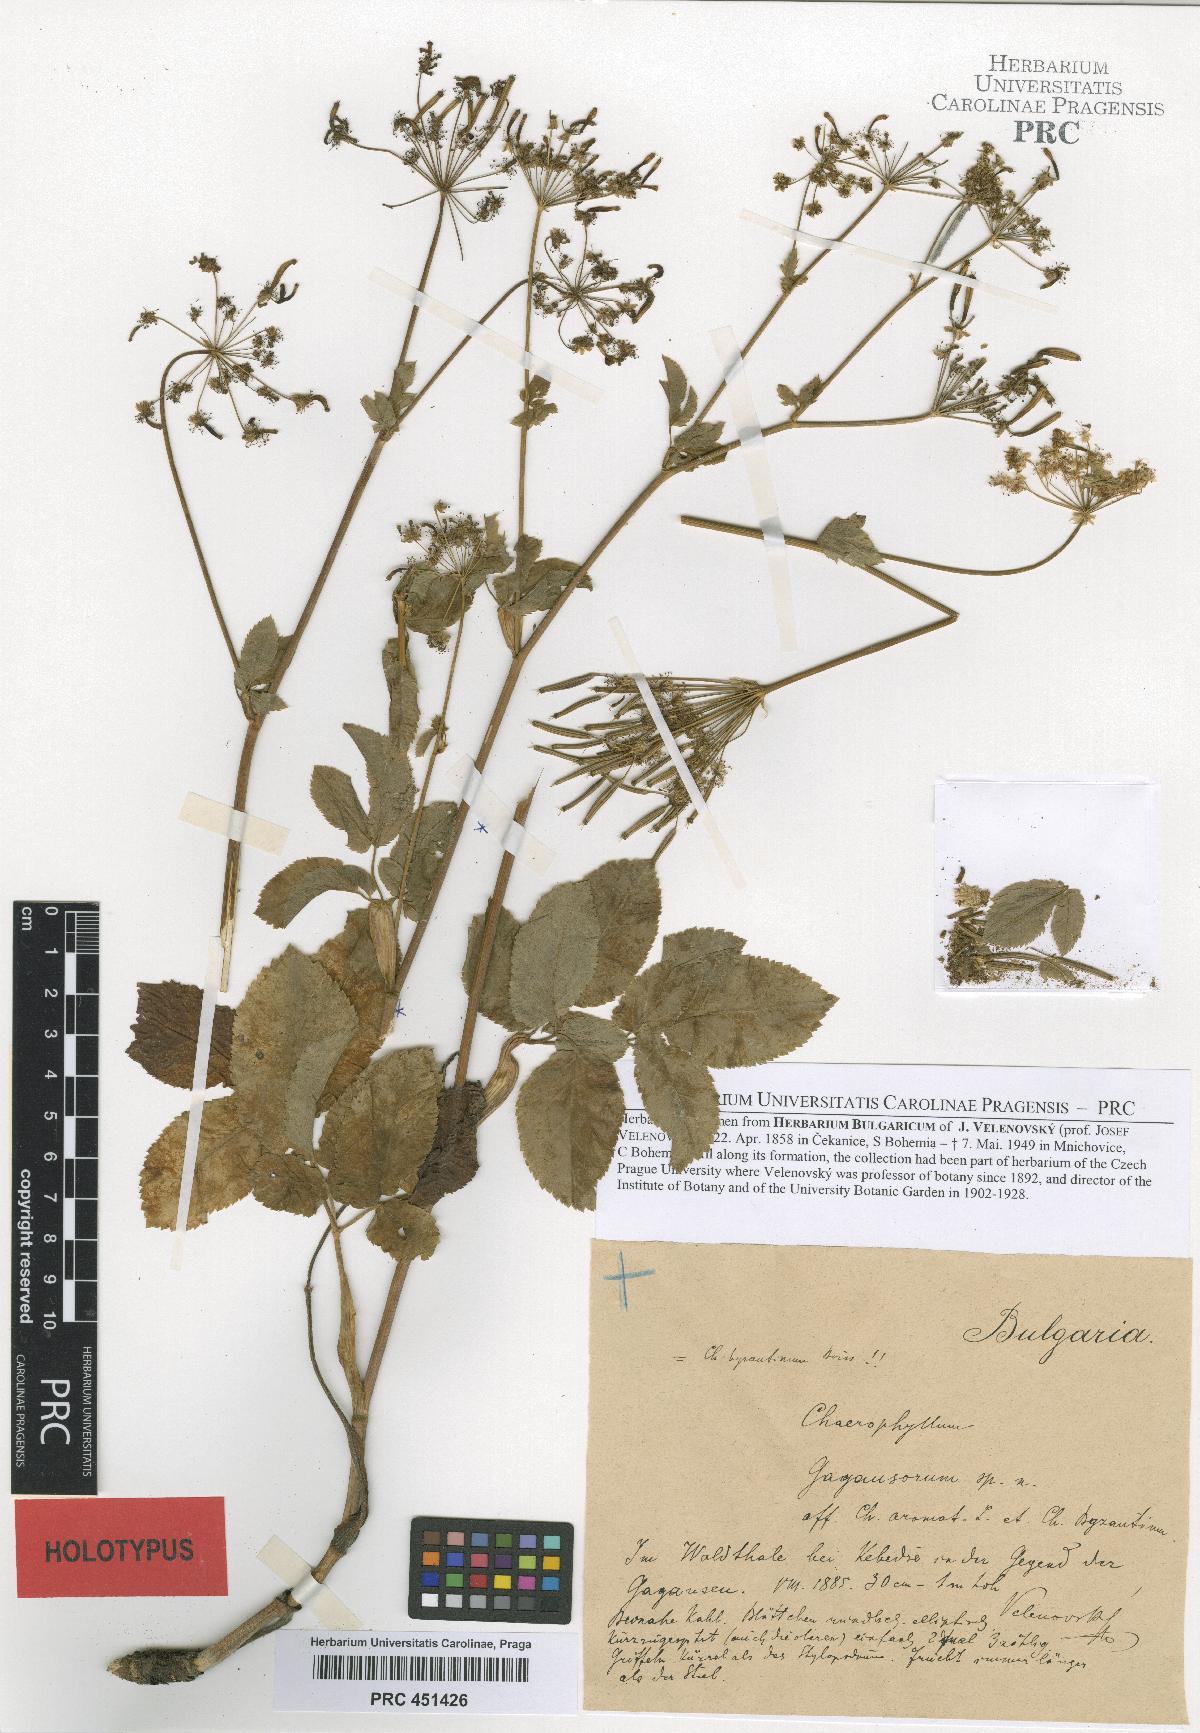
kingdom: Plantae
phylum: Tracheophyta
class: Magnoliopsida
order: Apiales
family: Apiaceae
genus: Chaerophyllum
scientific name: Chaerophyllum gagausorum
